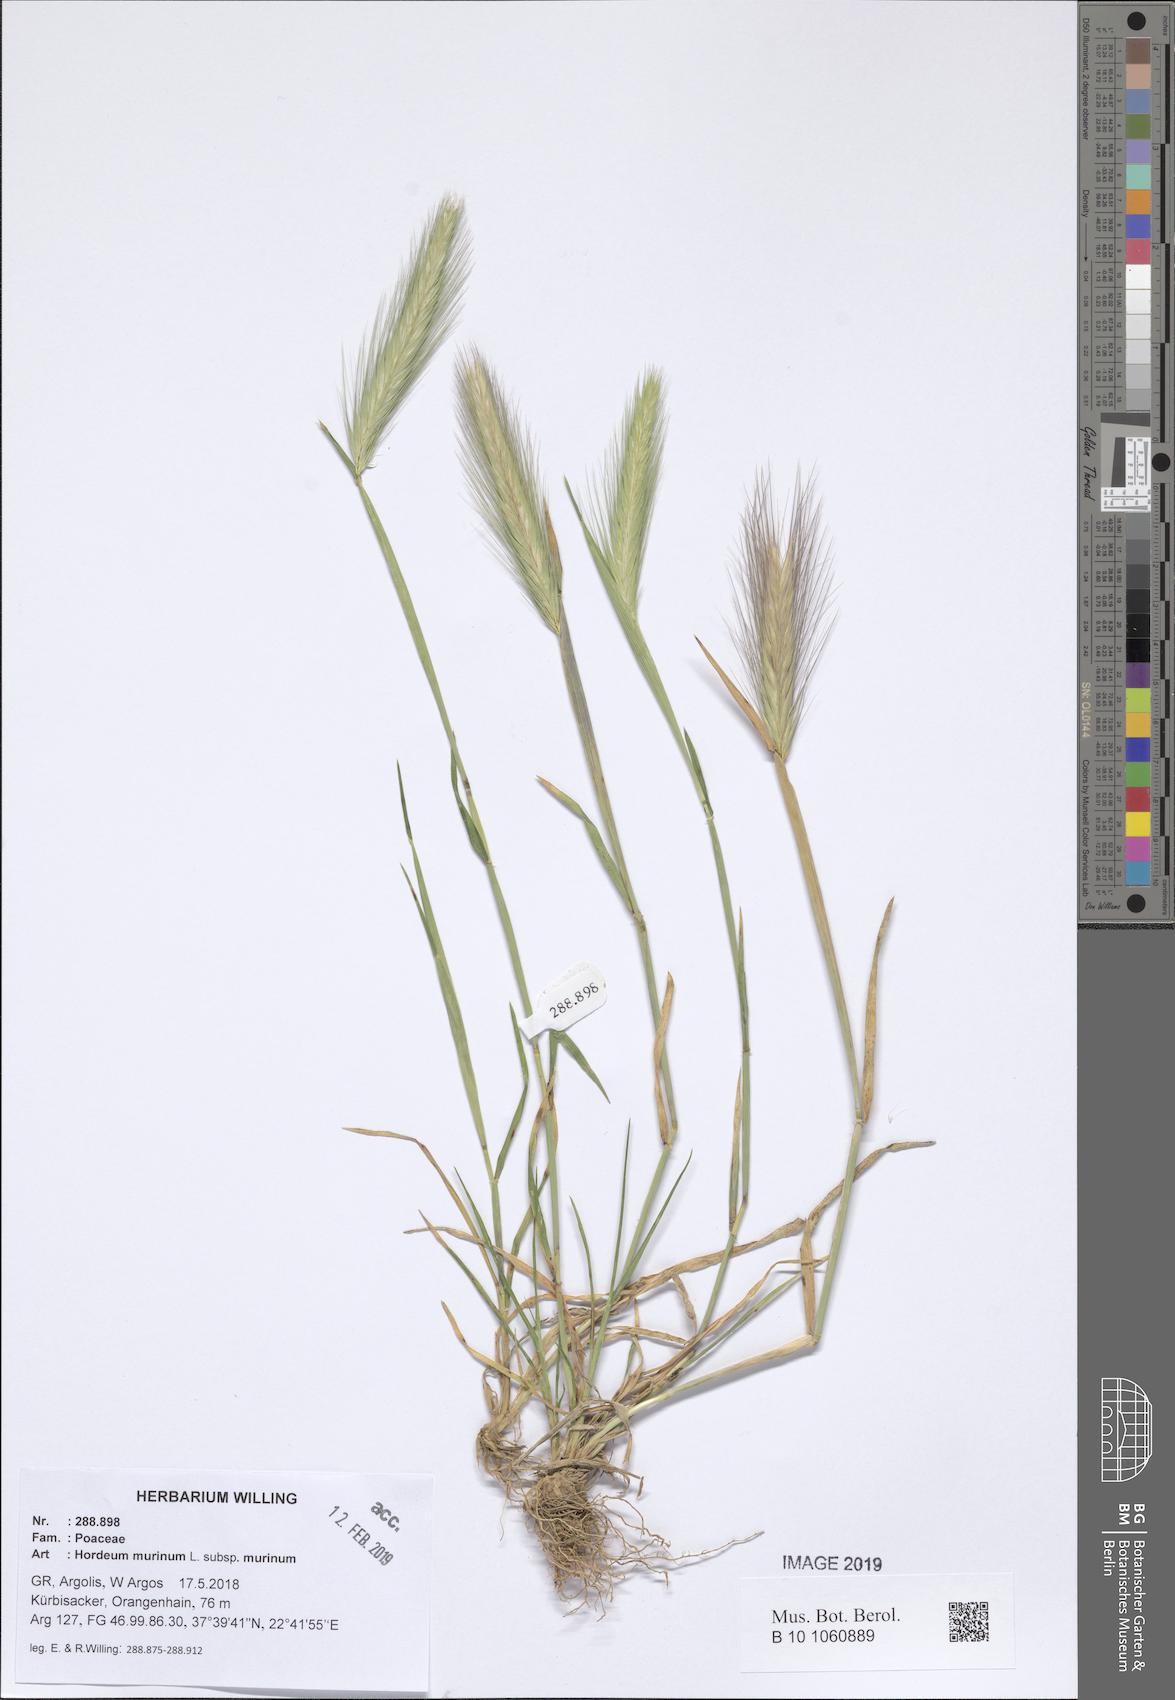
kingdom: Plantae
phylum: Tracheophyta
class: Liliopsida
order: Poales
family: Poaceae
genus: Hordeum
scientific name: Hordeum murinum
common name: Wall barley
